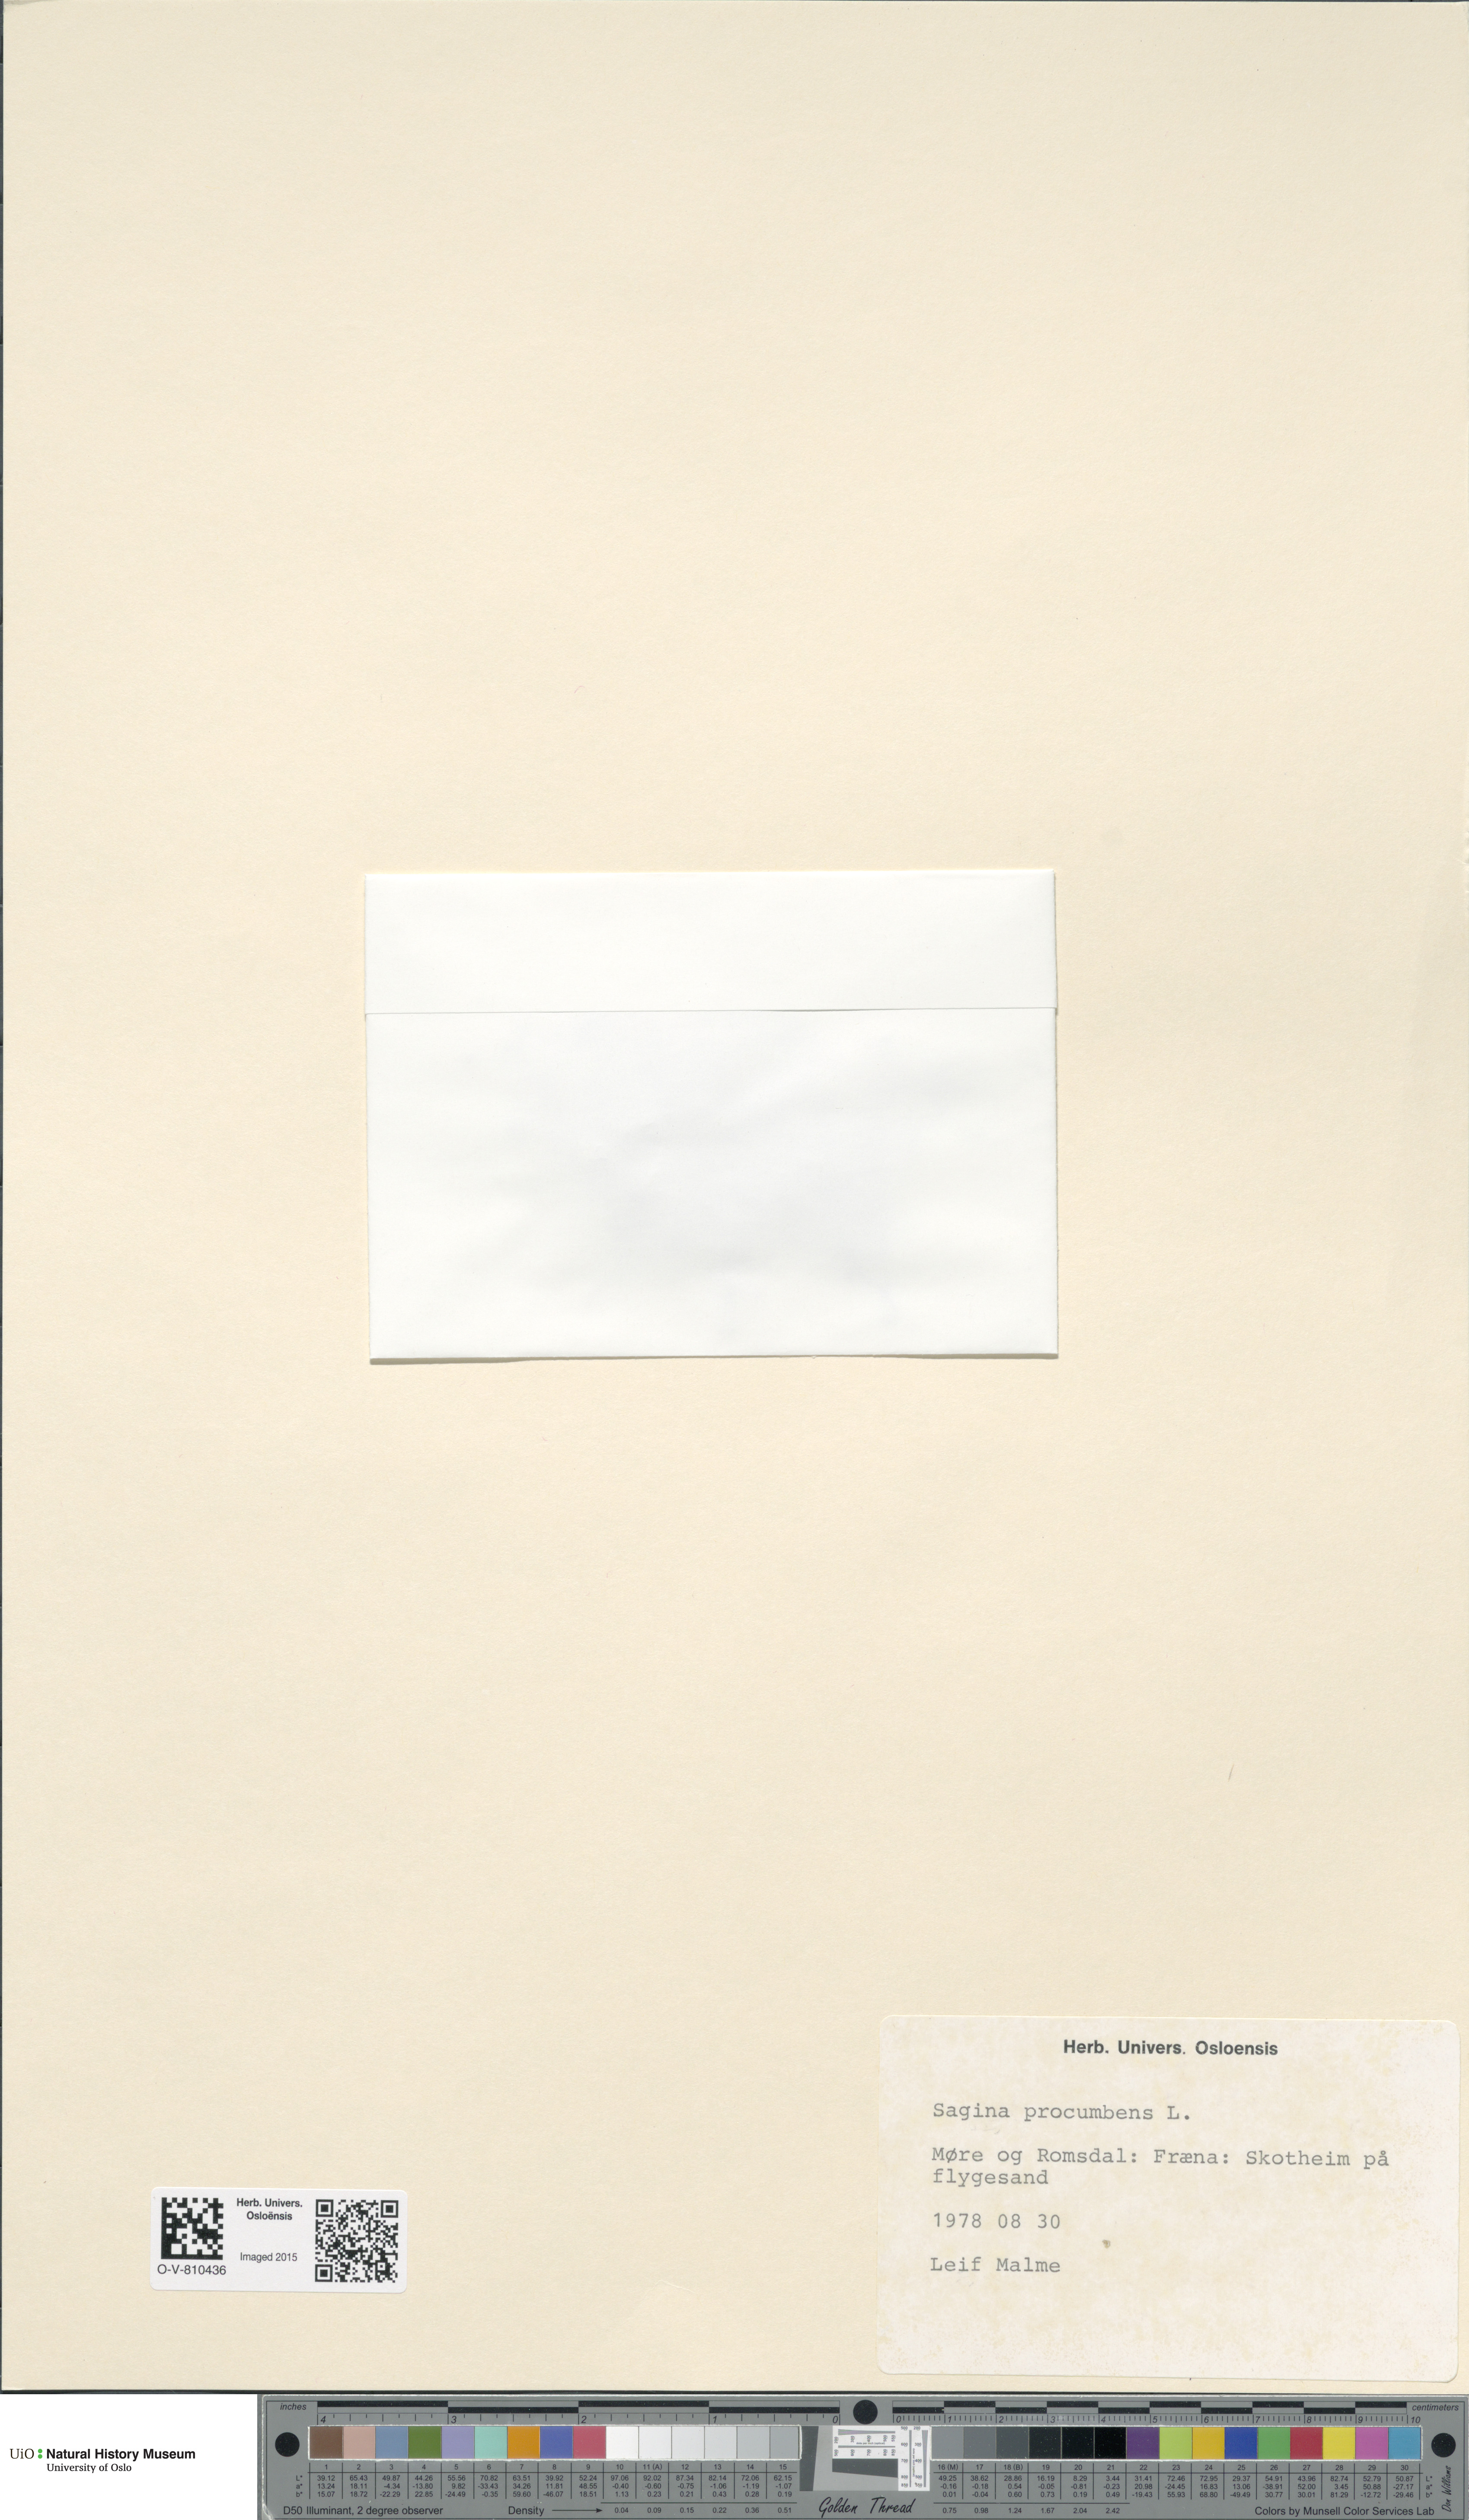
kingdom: Plantae
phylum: Tracheophyta
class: Magnoliopsida
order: Caryophyllales
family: Caryophyllaceae
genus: Sagina
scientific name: Sagina procumbens
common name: Procumbent pearlwort
